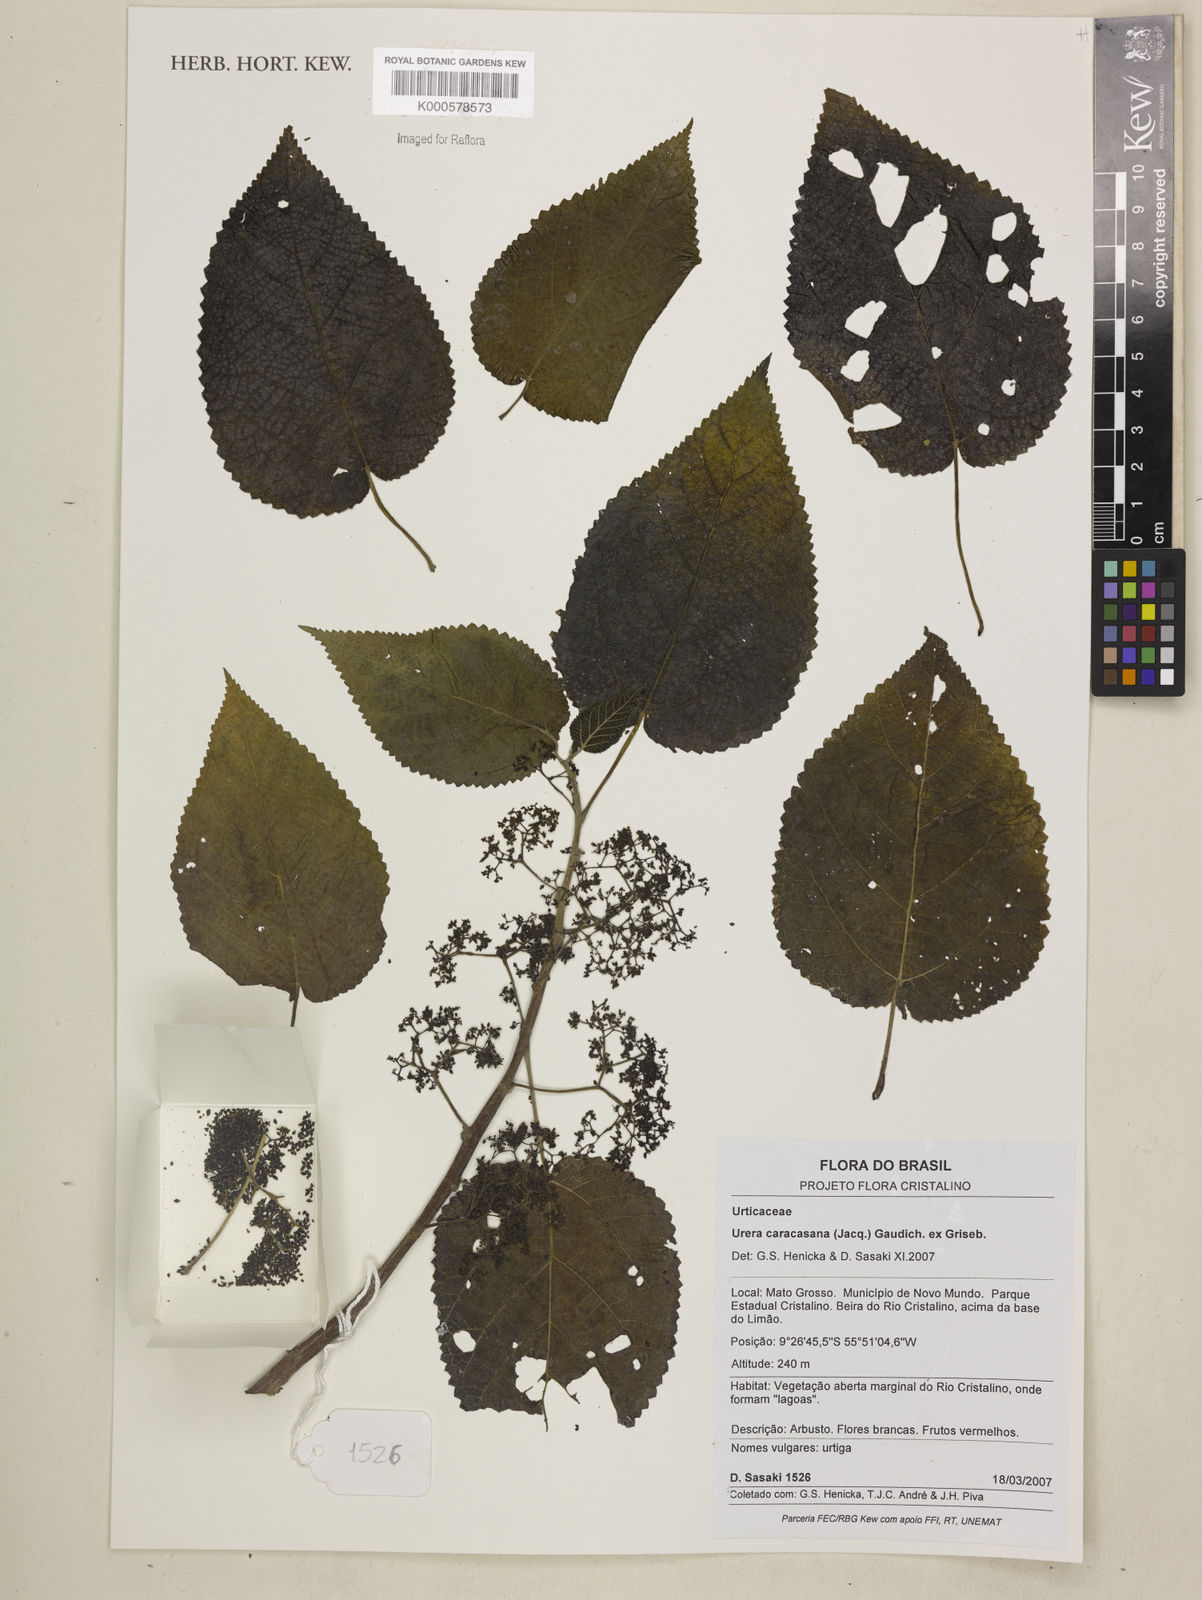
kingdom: Plantae
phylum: Tracheophyta
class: Magnoliopsida
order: Rosales
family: Urticaceae
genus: Urera
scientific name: Urera caracasana
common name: Flameberry
